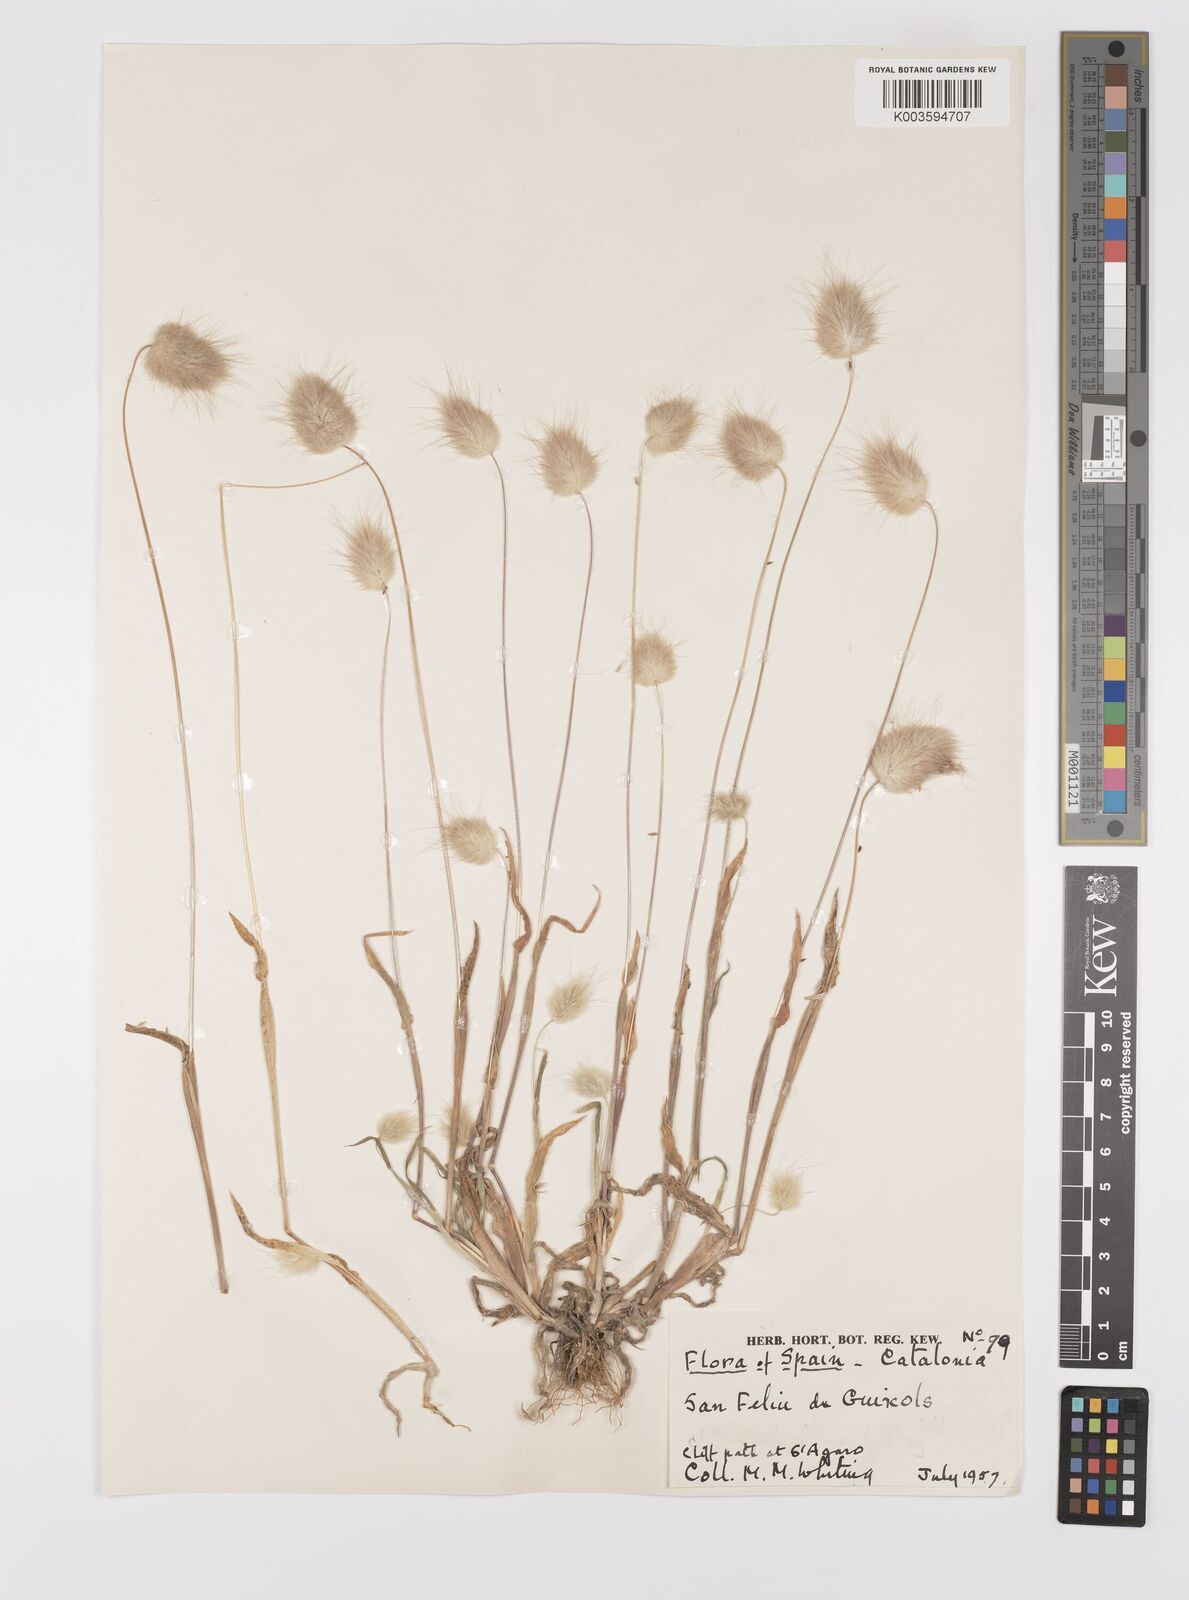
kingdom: Plantae
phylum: Tracheophyta
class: Liliopsida
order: Poales
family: Poaceae
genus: Lagurus
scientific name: Lagurus ovatus
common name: Hare's-tail
